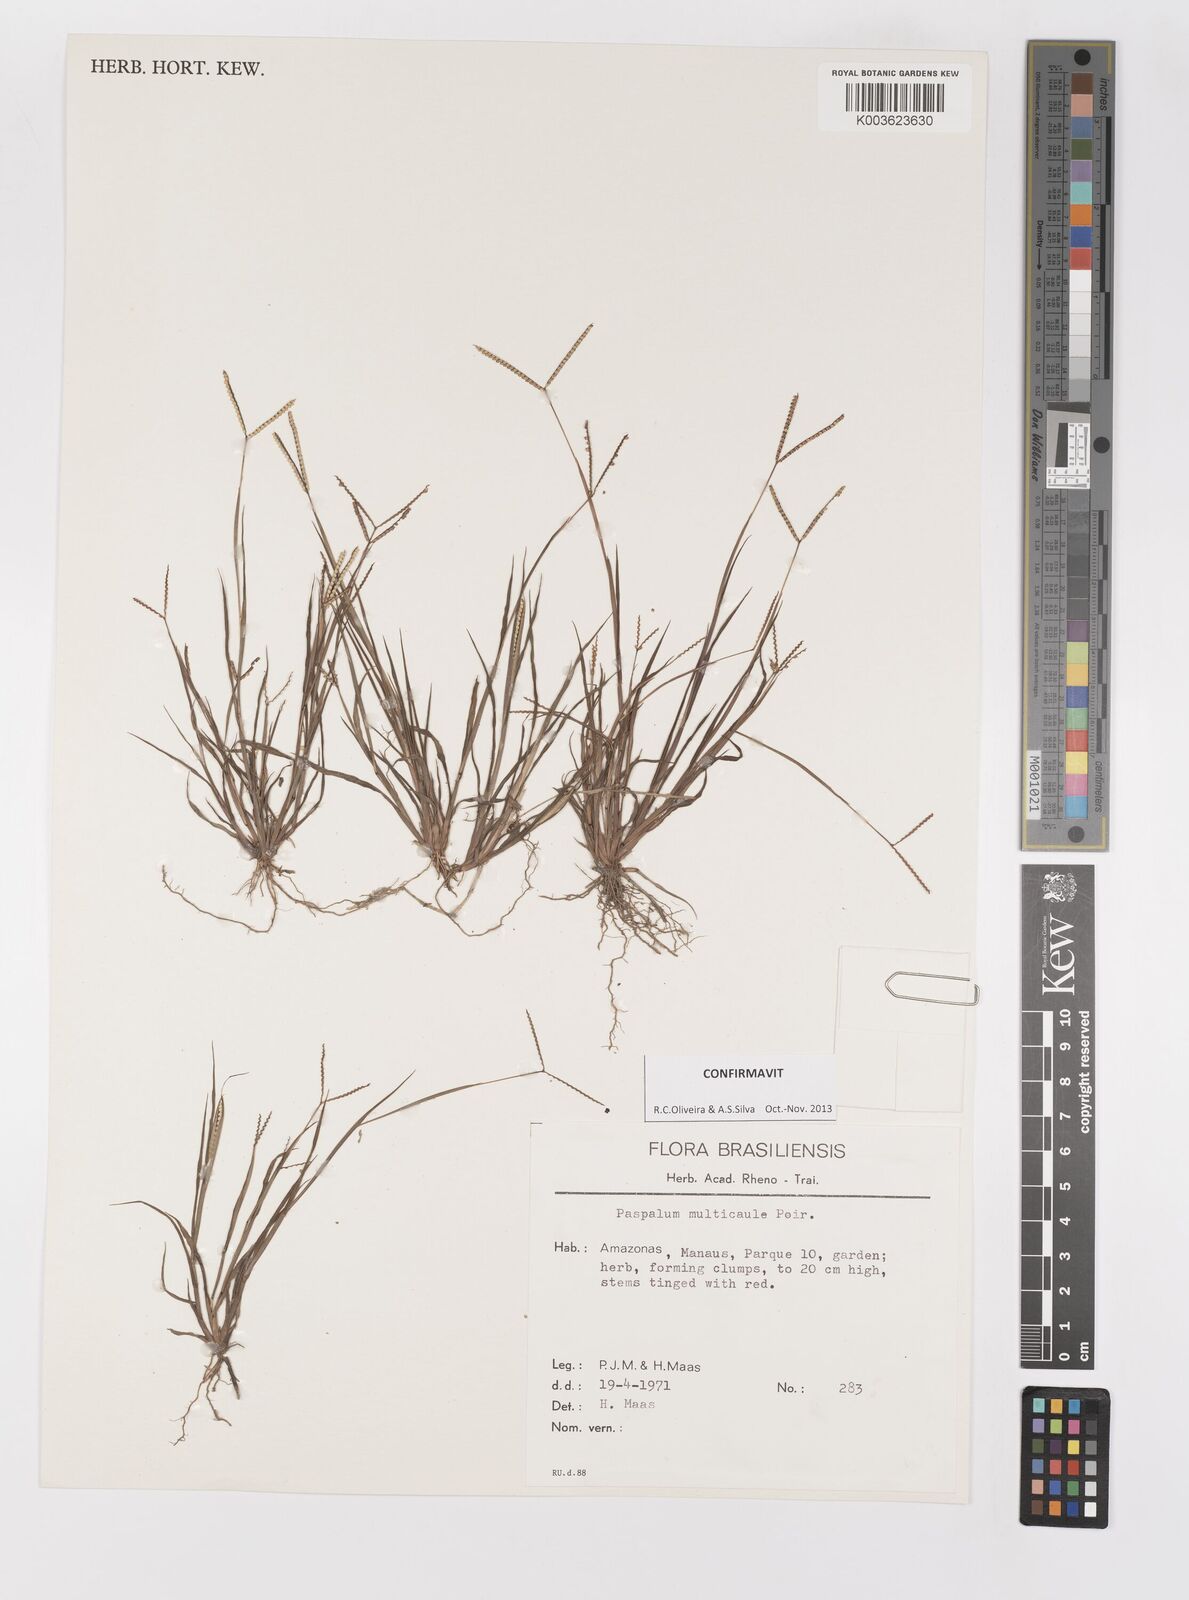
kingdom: Plantae
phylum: Tracheophyta
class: Liliopsida
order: Poales
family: Poaceae
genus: Paspalum
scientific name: Paspalum multicaule
